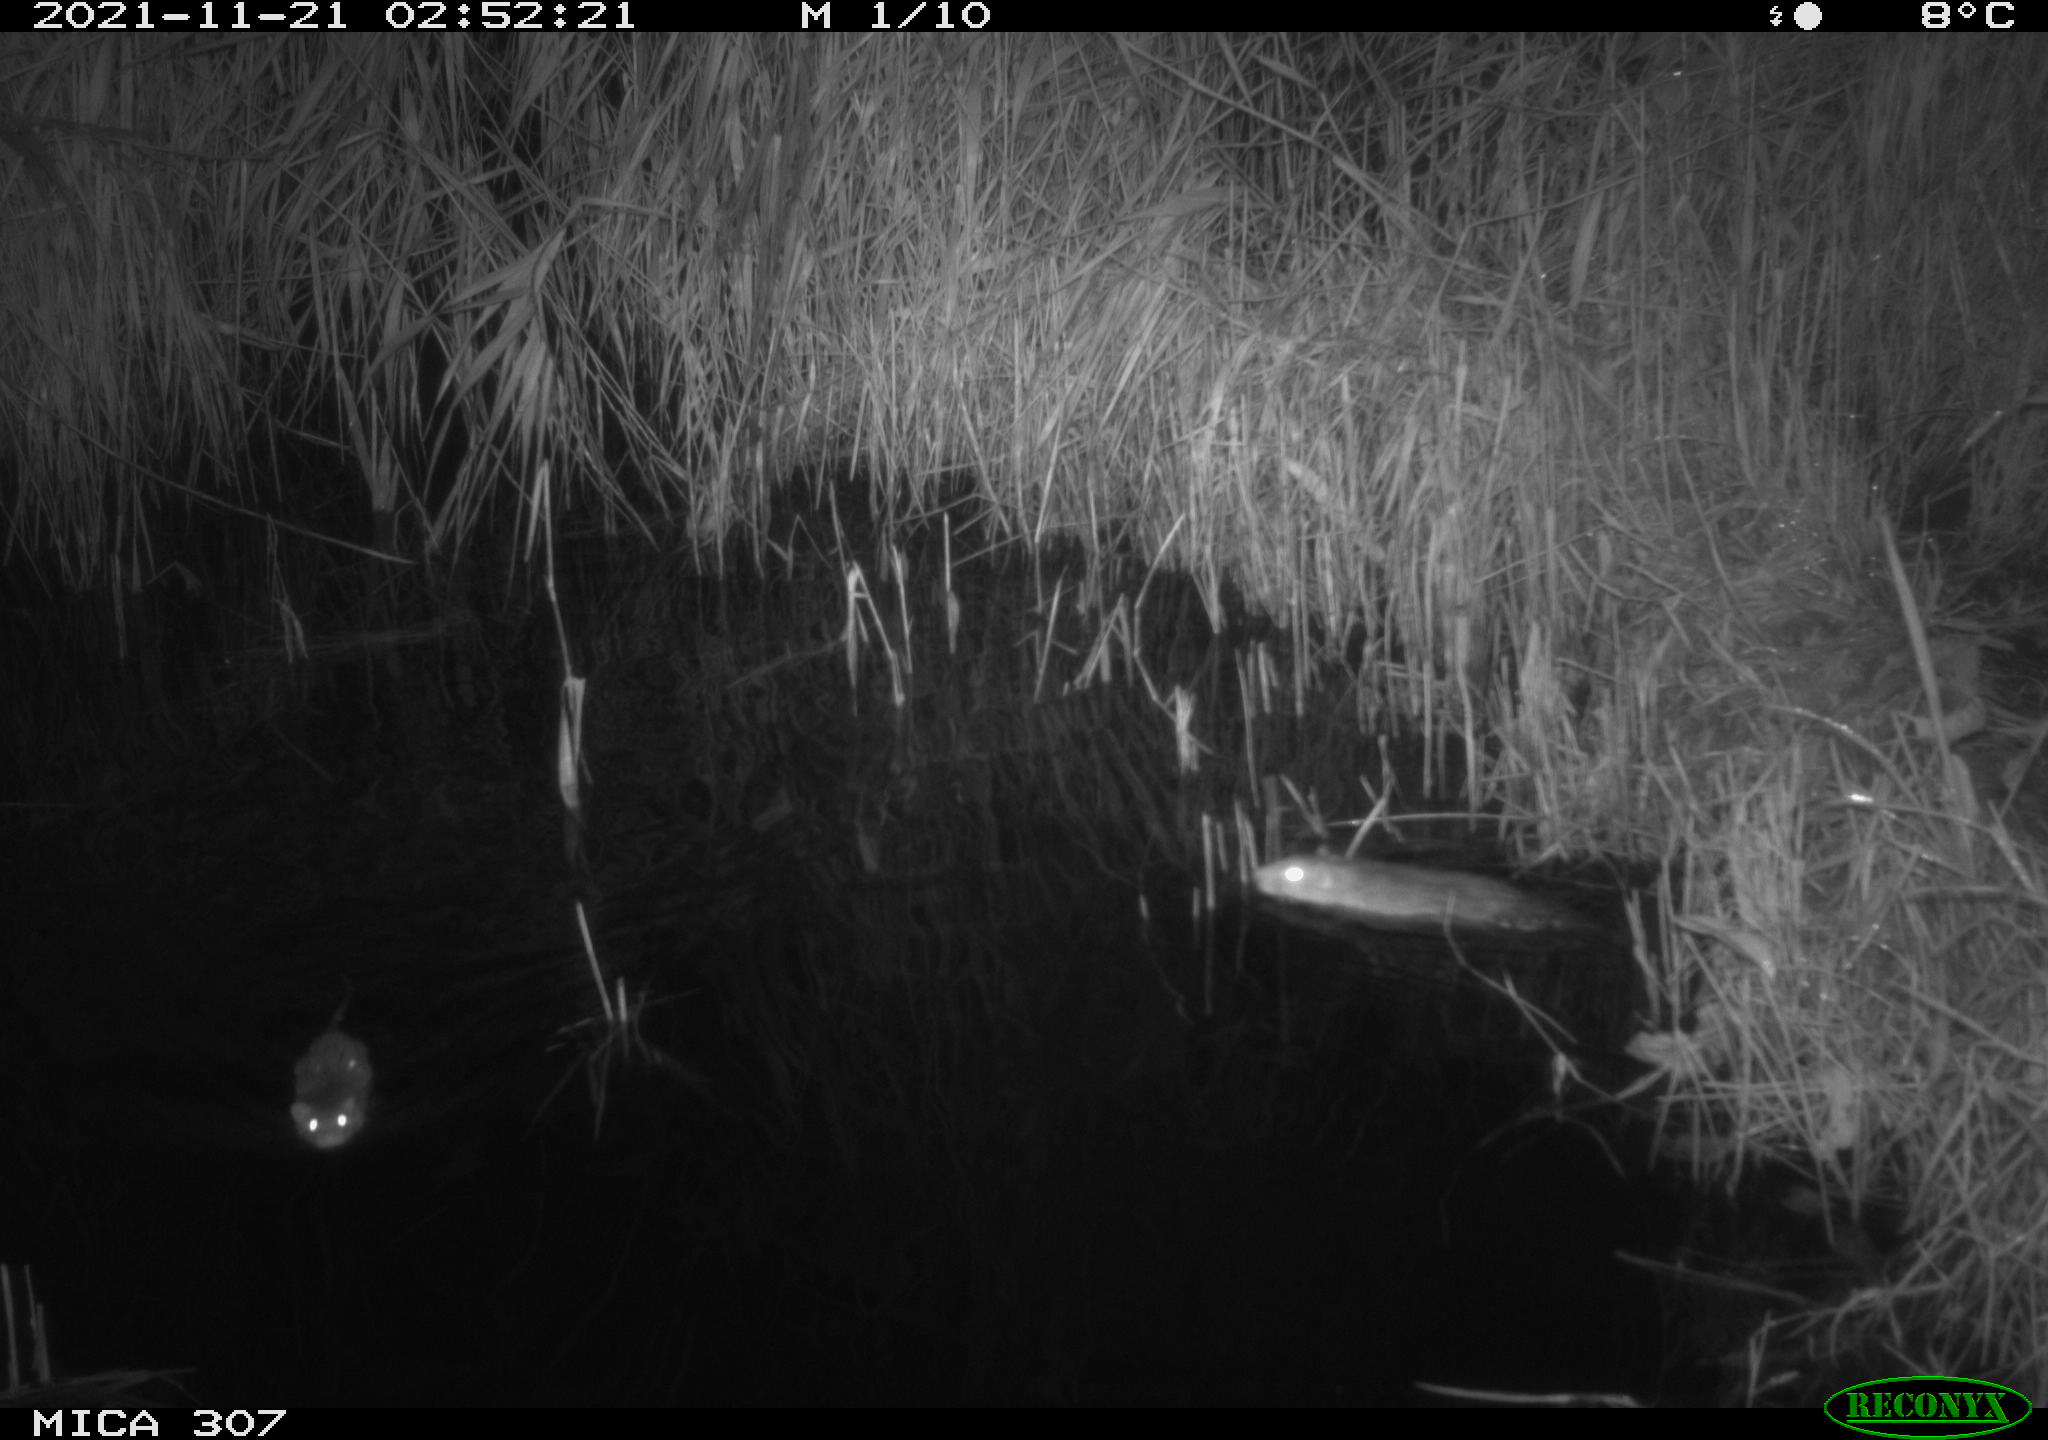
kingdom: Animalia
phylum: Chordata
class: Mammalia
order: Rodentia
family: Muridae
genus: Rattus
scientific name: Rattus norvegicus
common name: Brown rat
